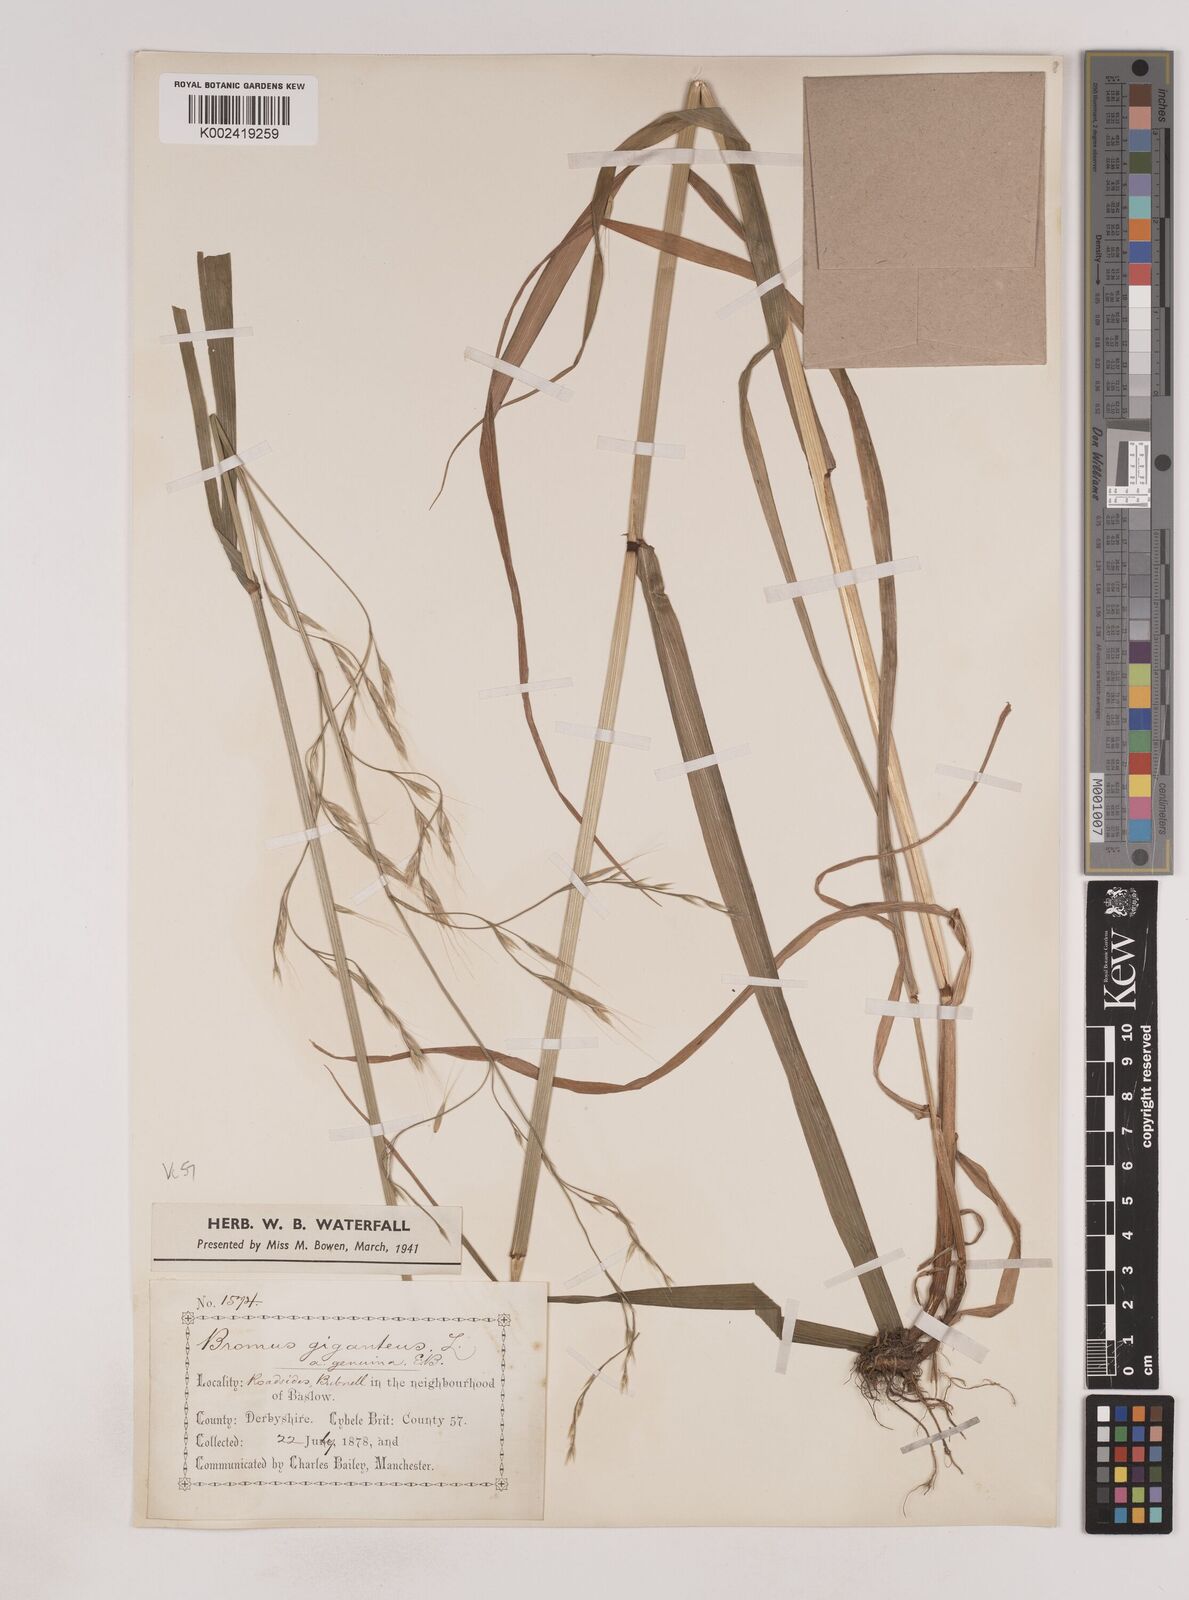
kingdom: Plantae
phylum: Tracheophyta
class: Liliopsida
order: Poales
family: Poaceae
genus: Lolium
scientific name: Lolium giganteum
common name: Giant fescue
